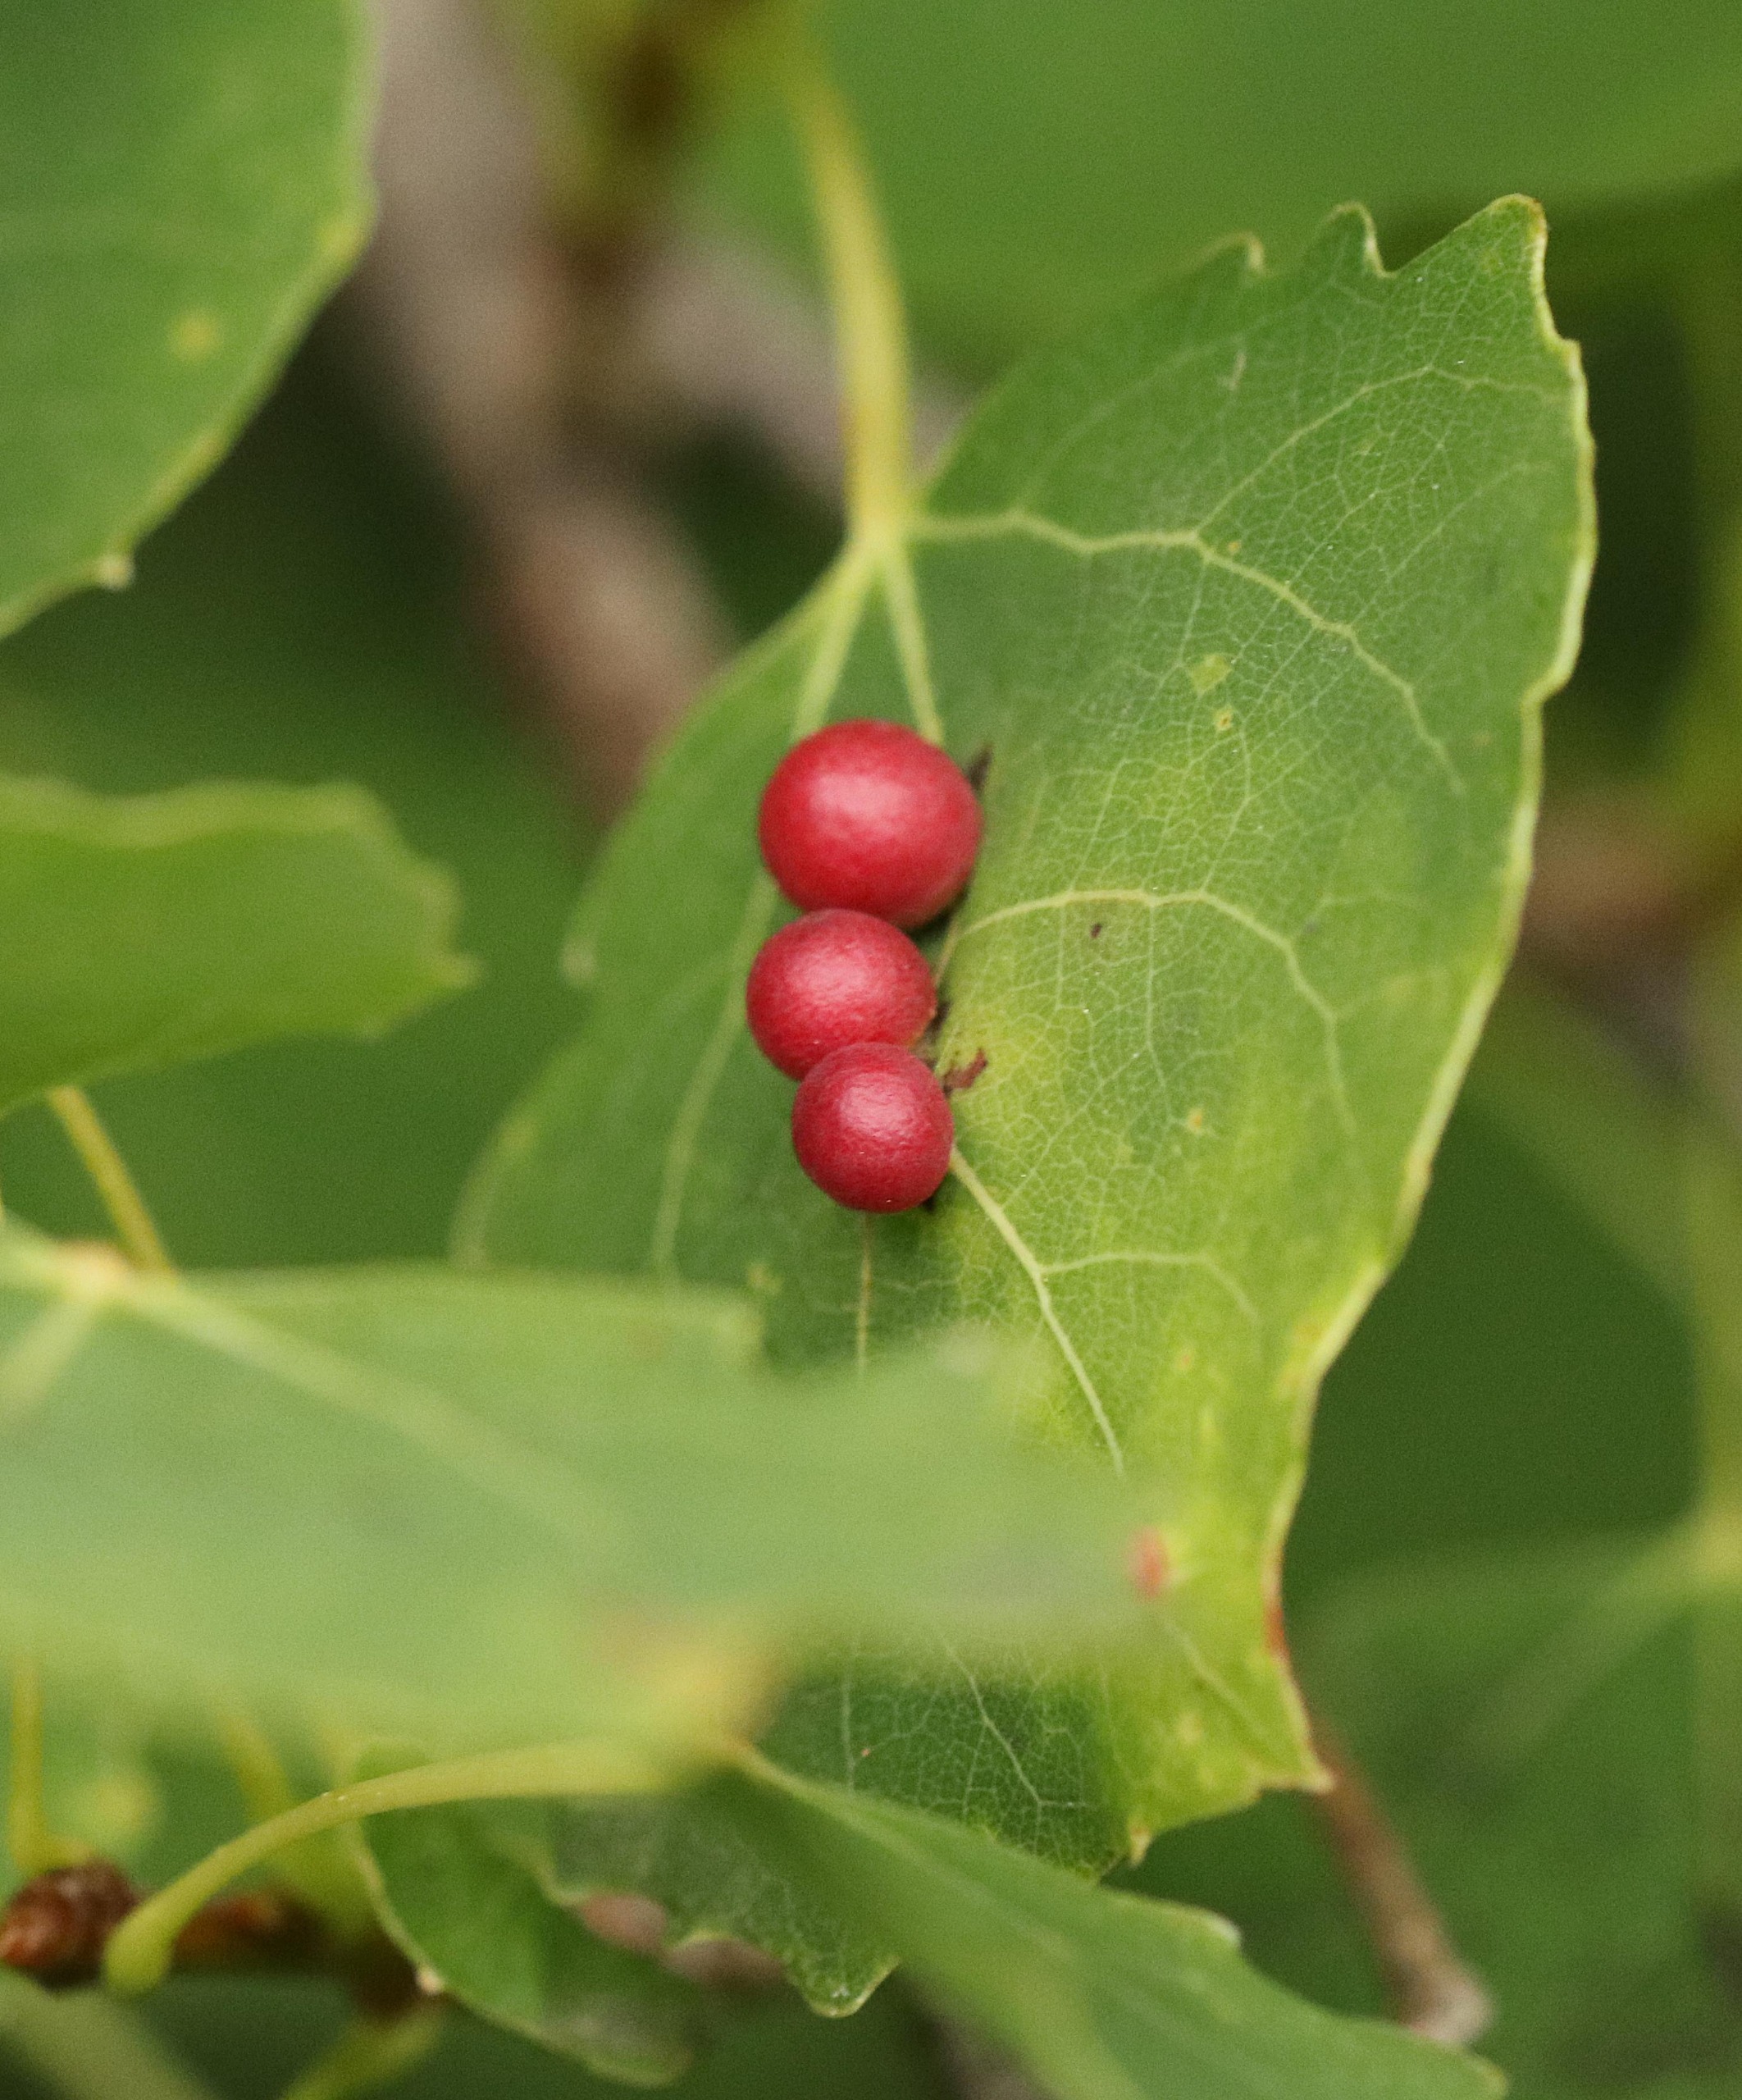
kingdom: Animalia
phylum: Arthropoda
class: Insecta
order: Diptera
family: Cecidomyiidae
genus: Harmandiola
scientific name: Harmandiola tremulae
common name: Aspekuglegalmyg
